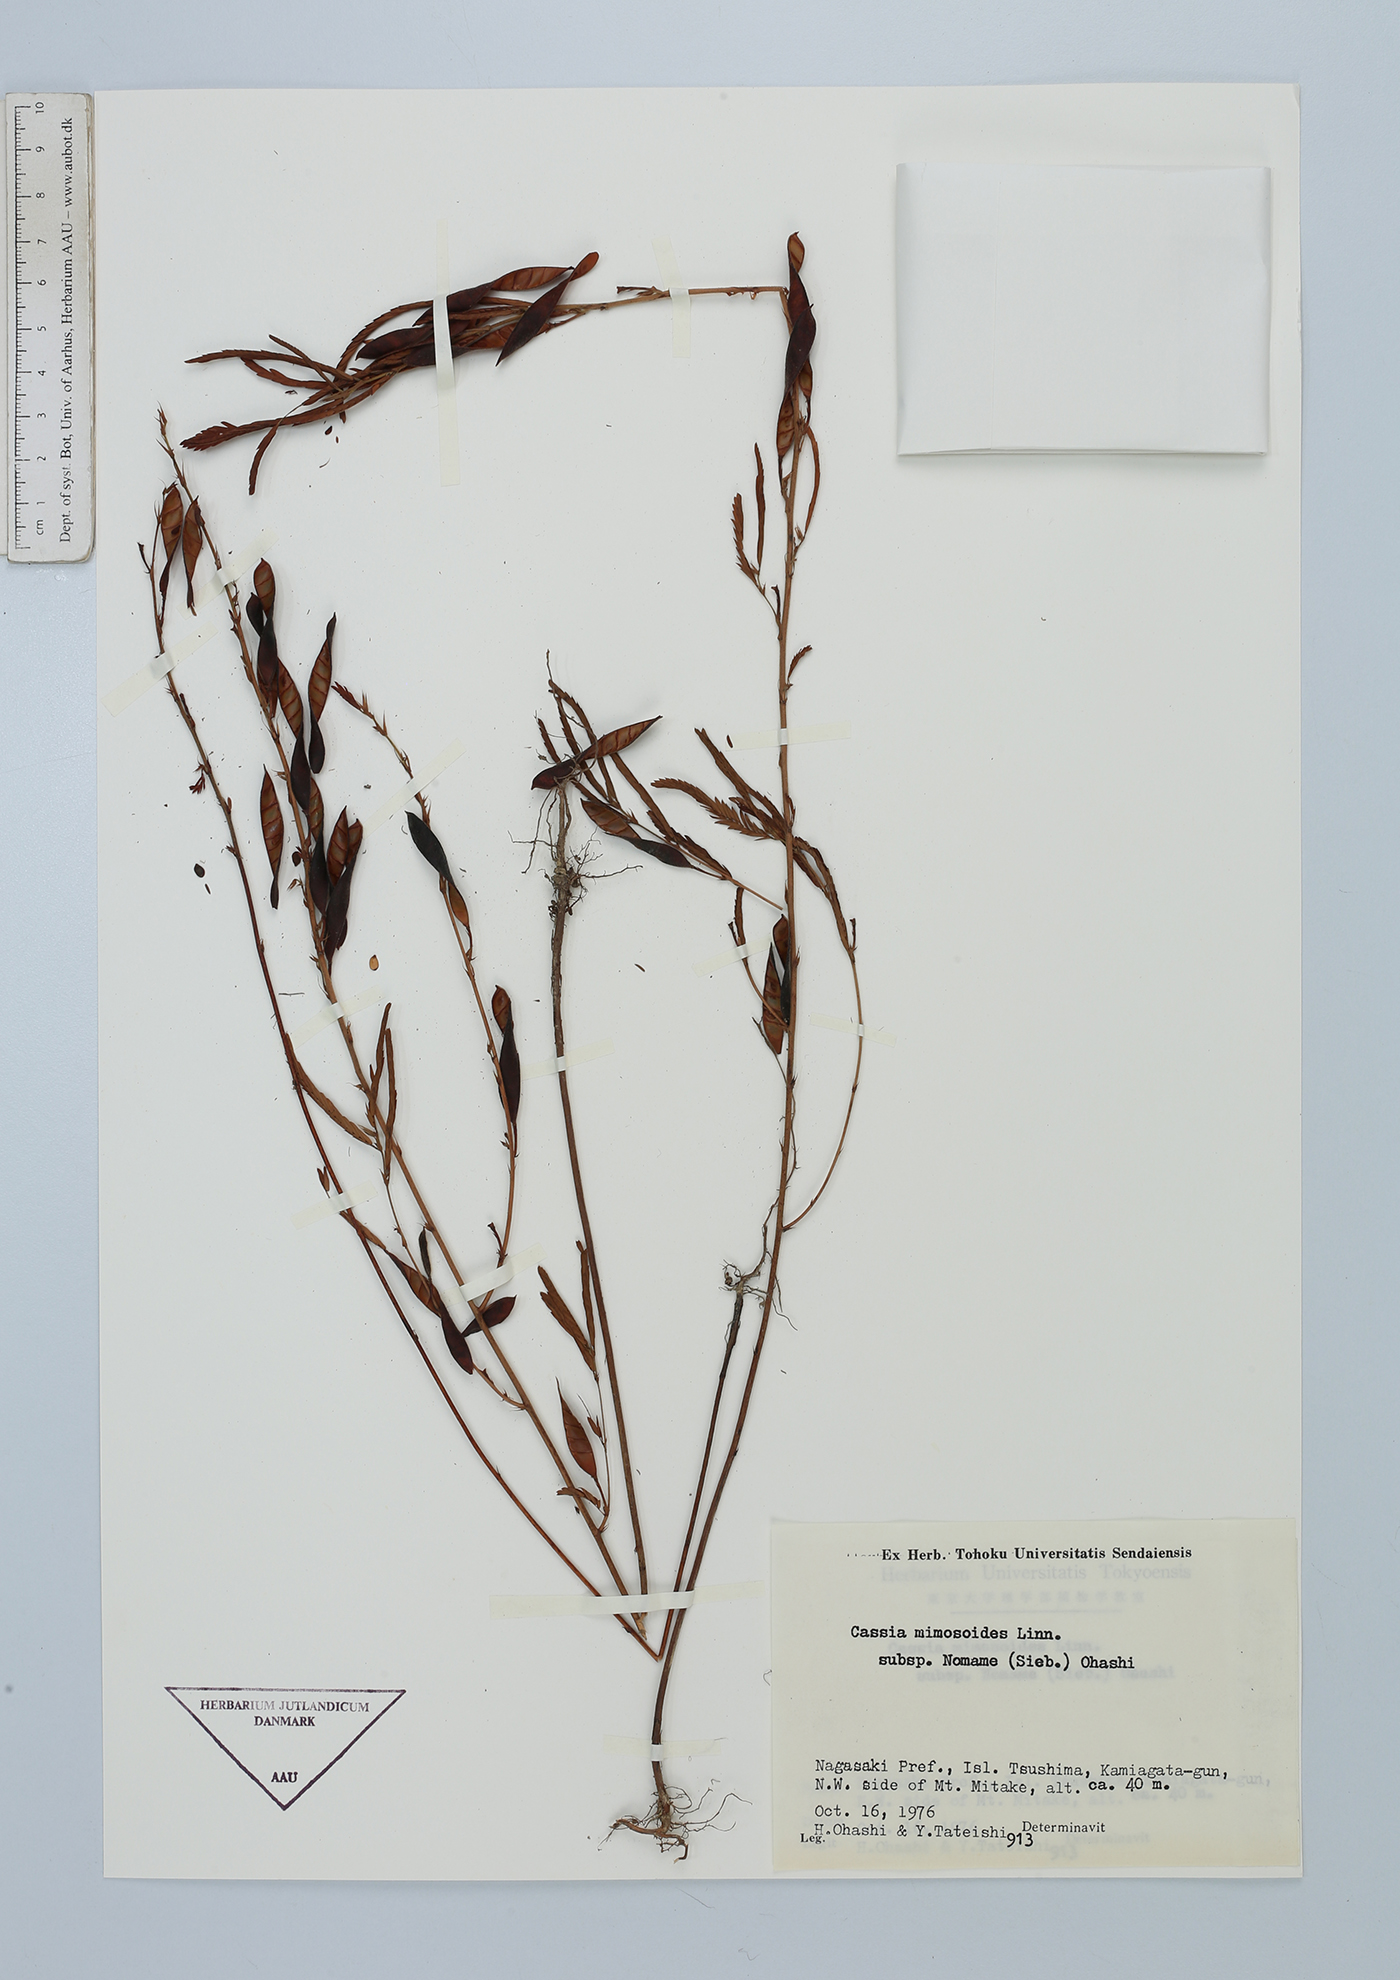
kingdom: Plantae
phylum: Tracheophyta
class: Magnoliopsida
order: Fabales
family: Fabaceae
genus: Chamaecrista
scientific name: Chamaecrista nomame
